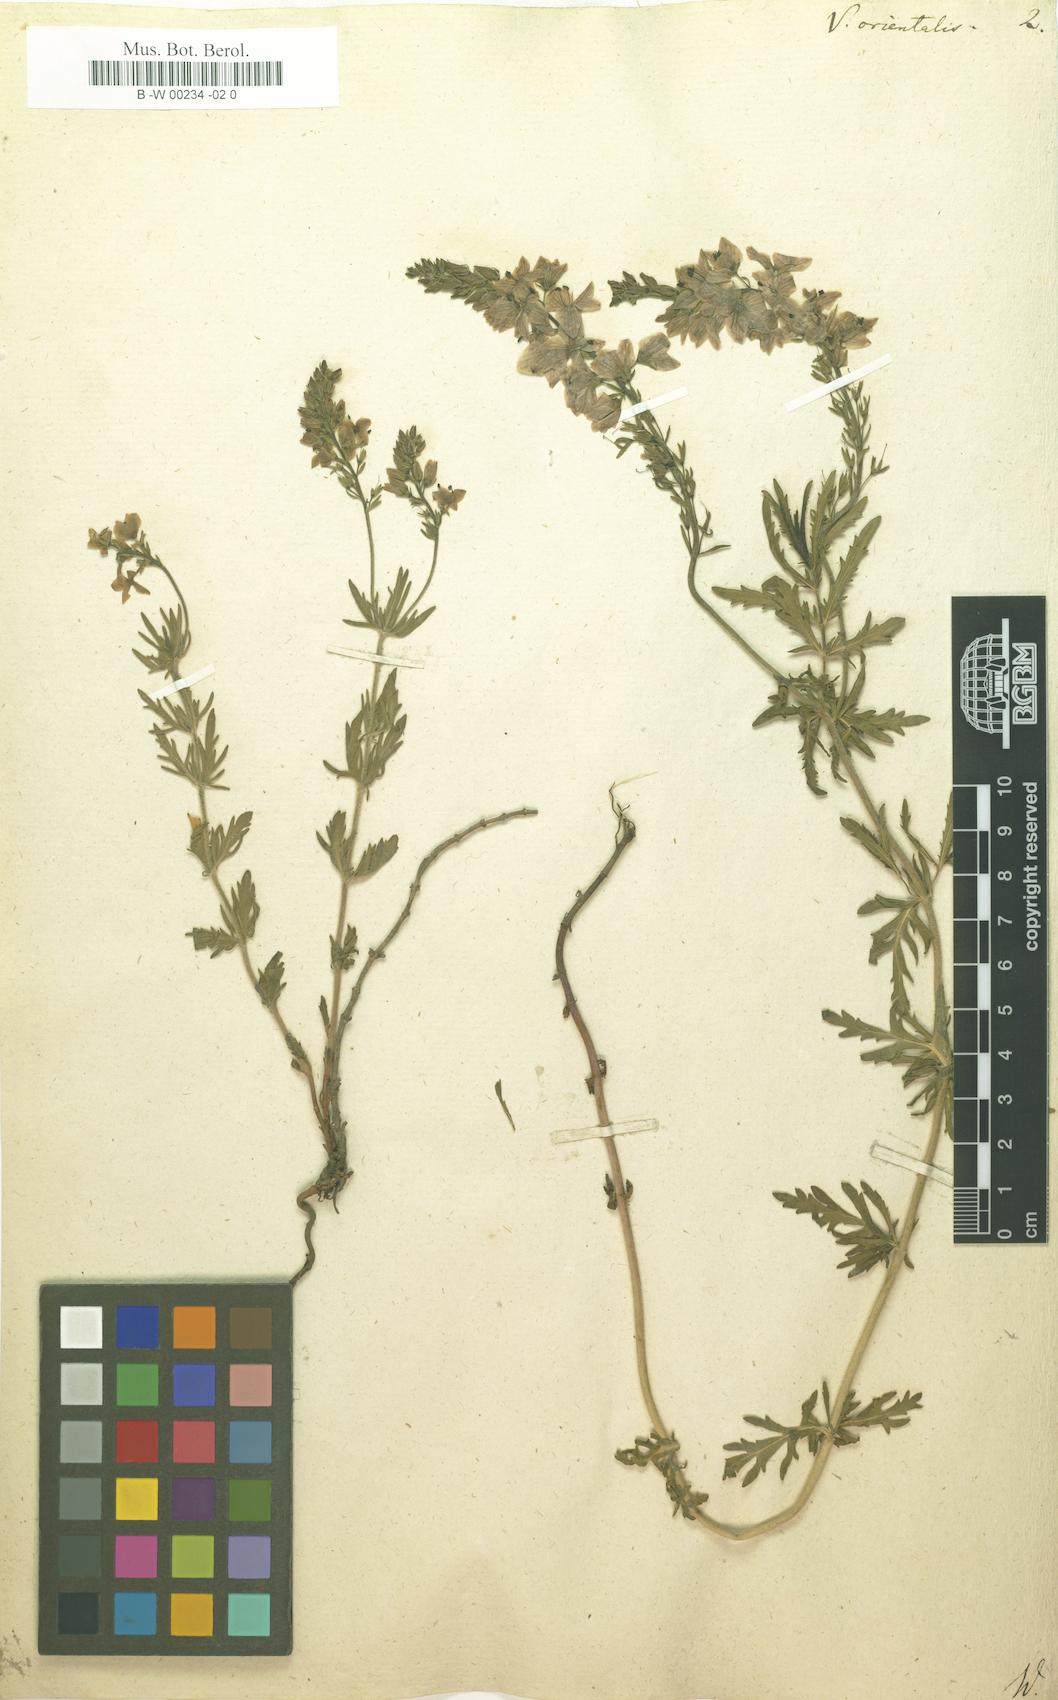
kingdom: Plantae
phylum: Tracheophyta
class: Magnoliopsida
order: Lamiales
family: Plantaginaceae
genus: Veronica
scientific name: Veronica orientalis
